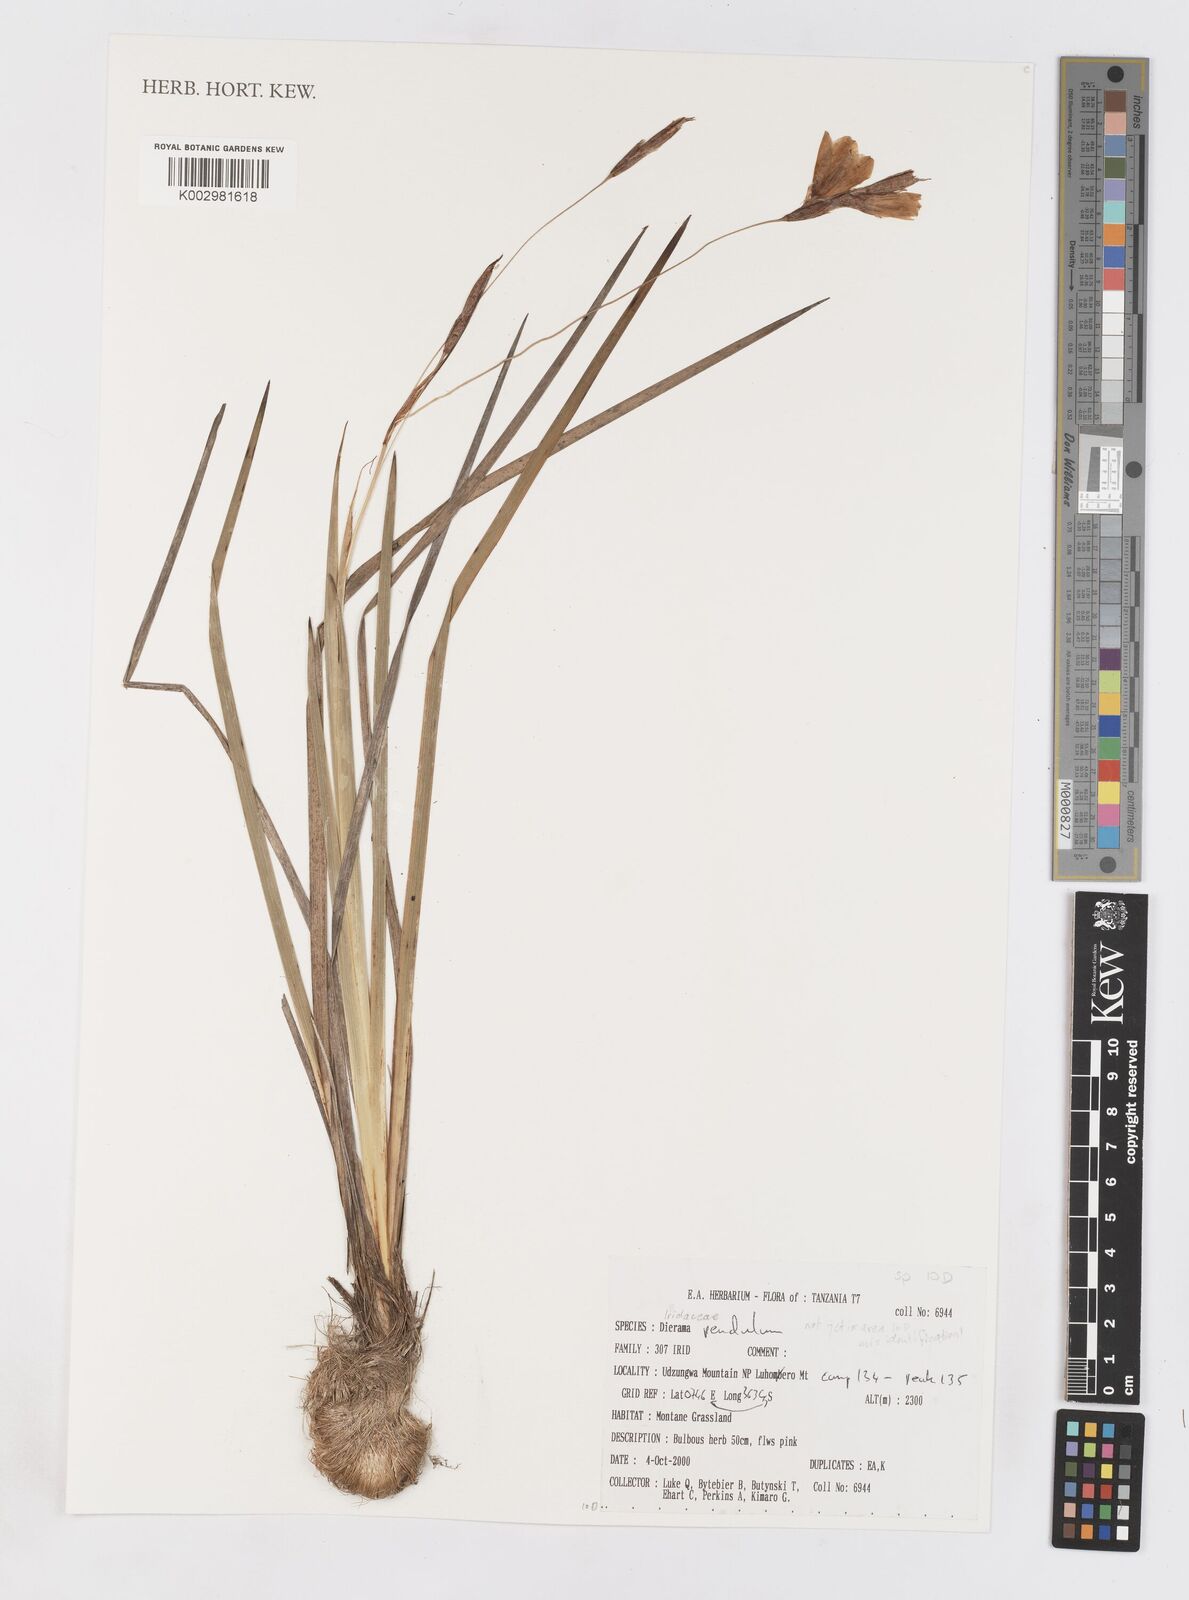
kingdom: Plantae
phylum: Tracheophyta
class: Liliopsida
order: Asparagales
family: Iridaceae
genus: Dierama
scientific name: Dierama cupuliflorum
